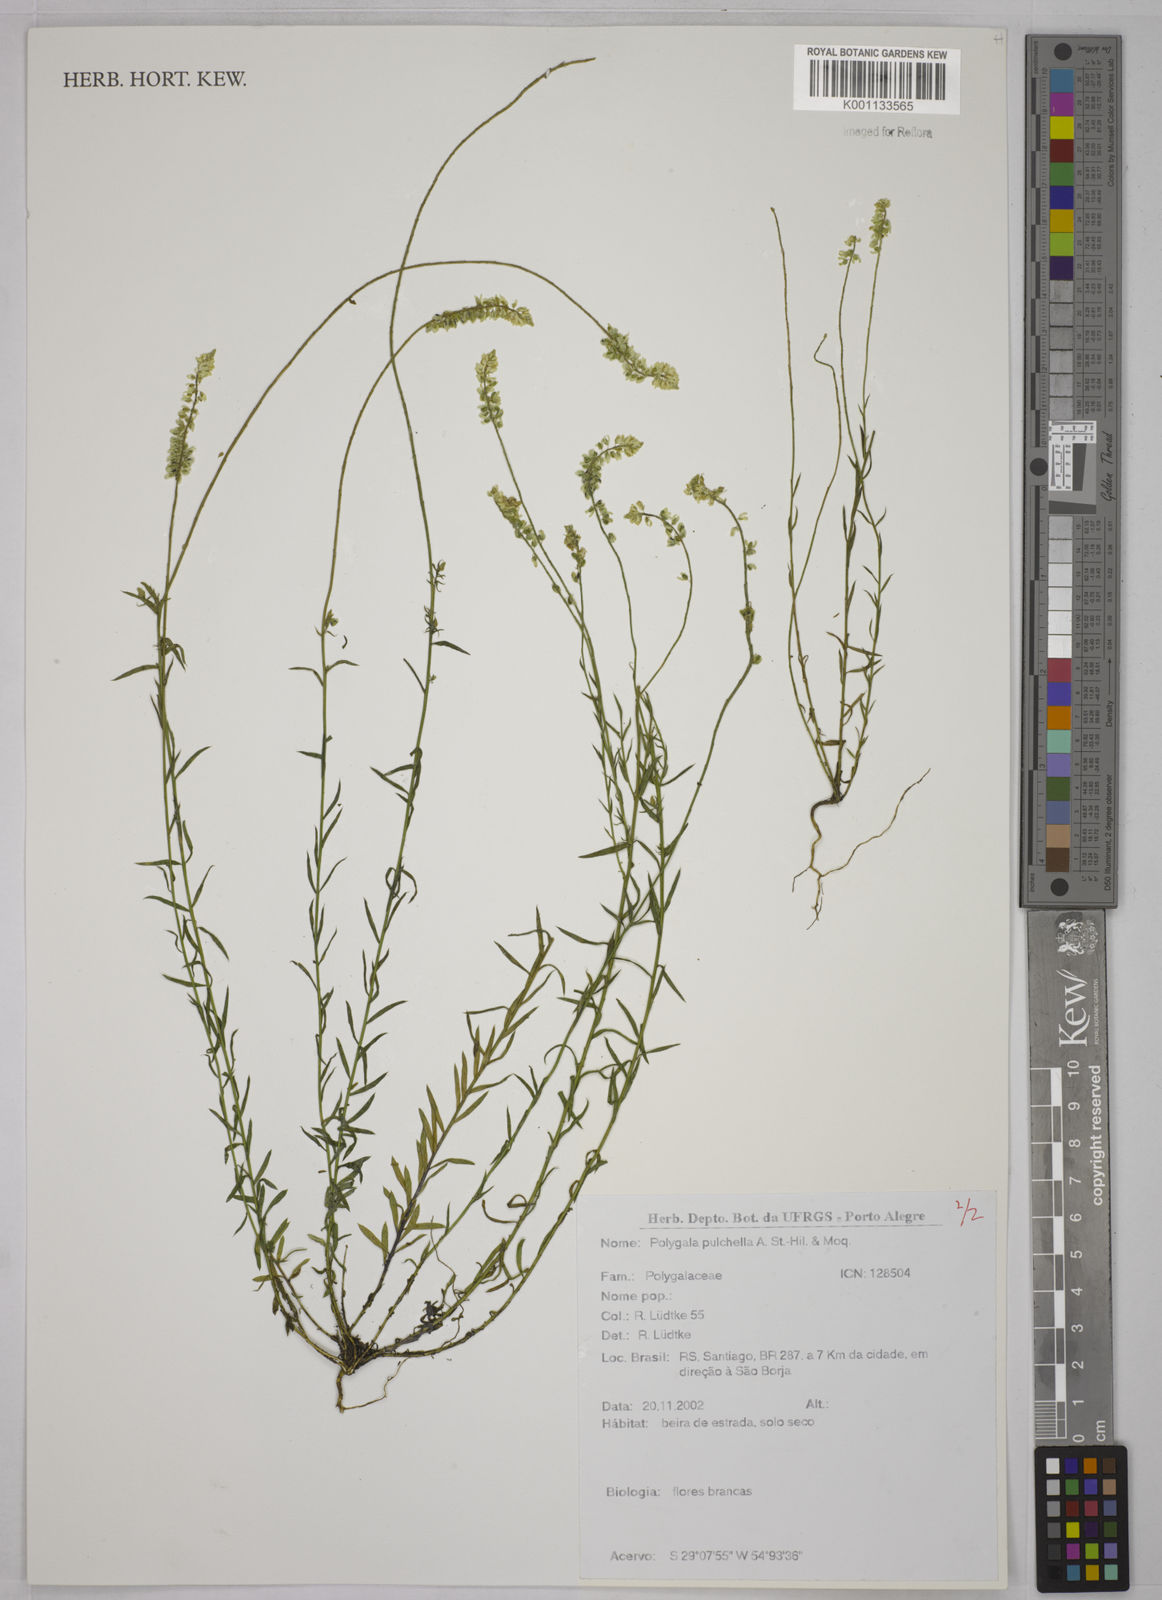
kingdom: Plantae
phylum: Tracheophyta
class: Magnoliopsida
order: Fabales
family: Polygalaceae
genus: Polygala
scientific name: Polygala pulchella
